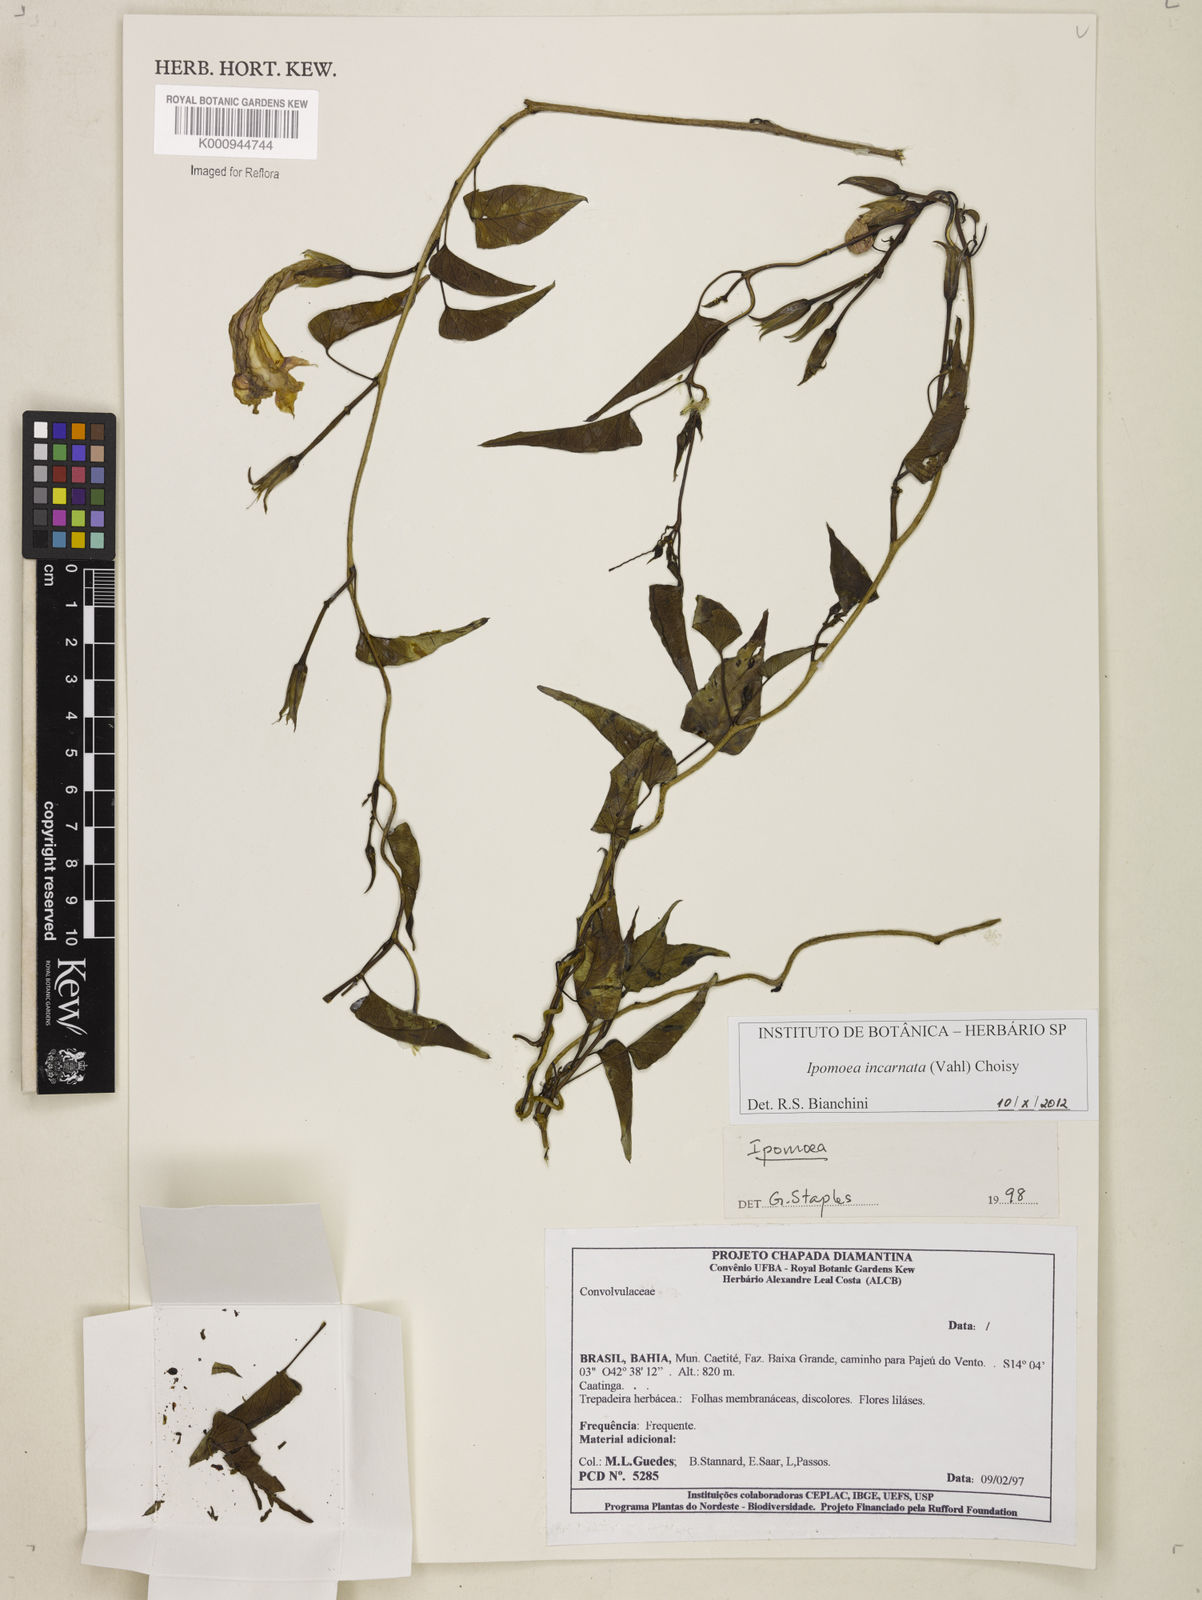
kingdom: Plantae
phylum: Tracheophyta
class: Magnoliopsida
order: Solanales
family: Convolvulaceae
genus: Ipomoea
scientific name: Ipomoea incarnata
